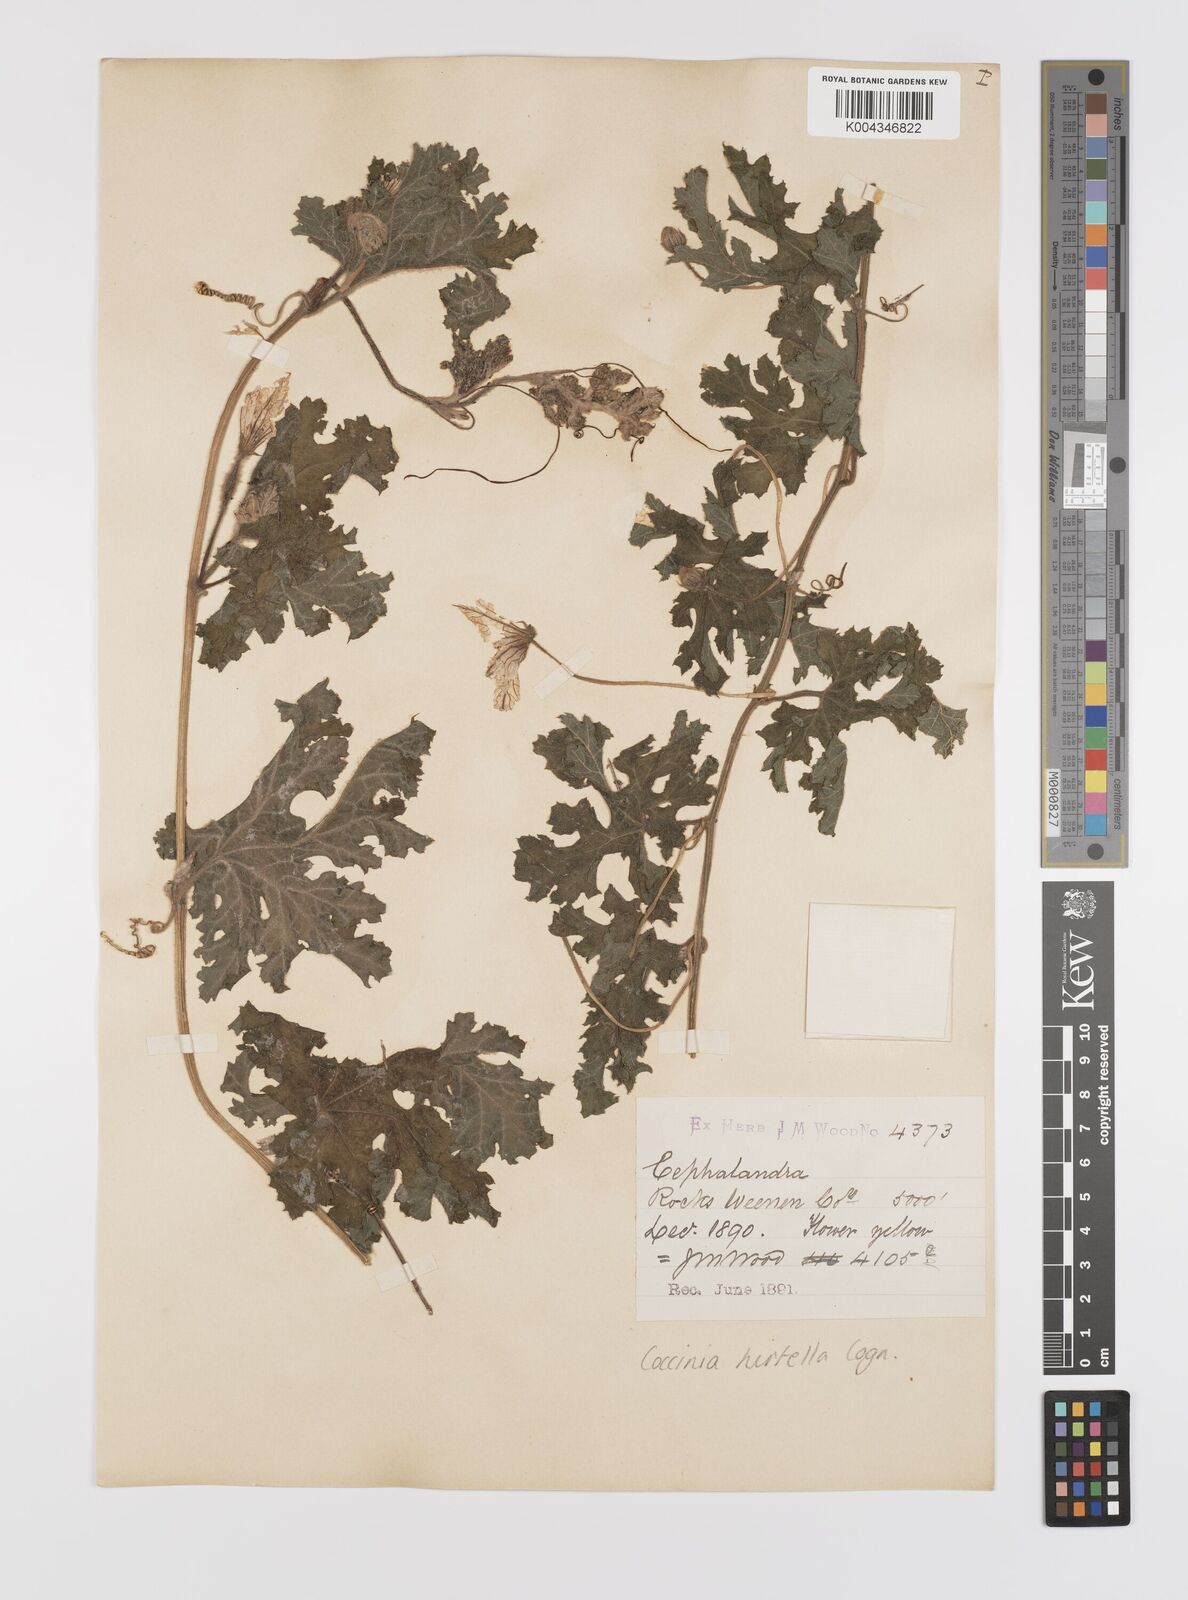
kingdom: Plantae
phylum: Tracheophyta
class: Magnoliopsida
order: Cucurbitales
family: Cucurbitaceae
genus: Coccinia
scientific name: Coccinia hirtella
